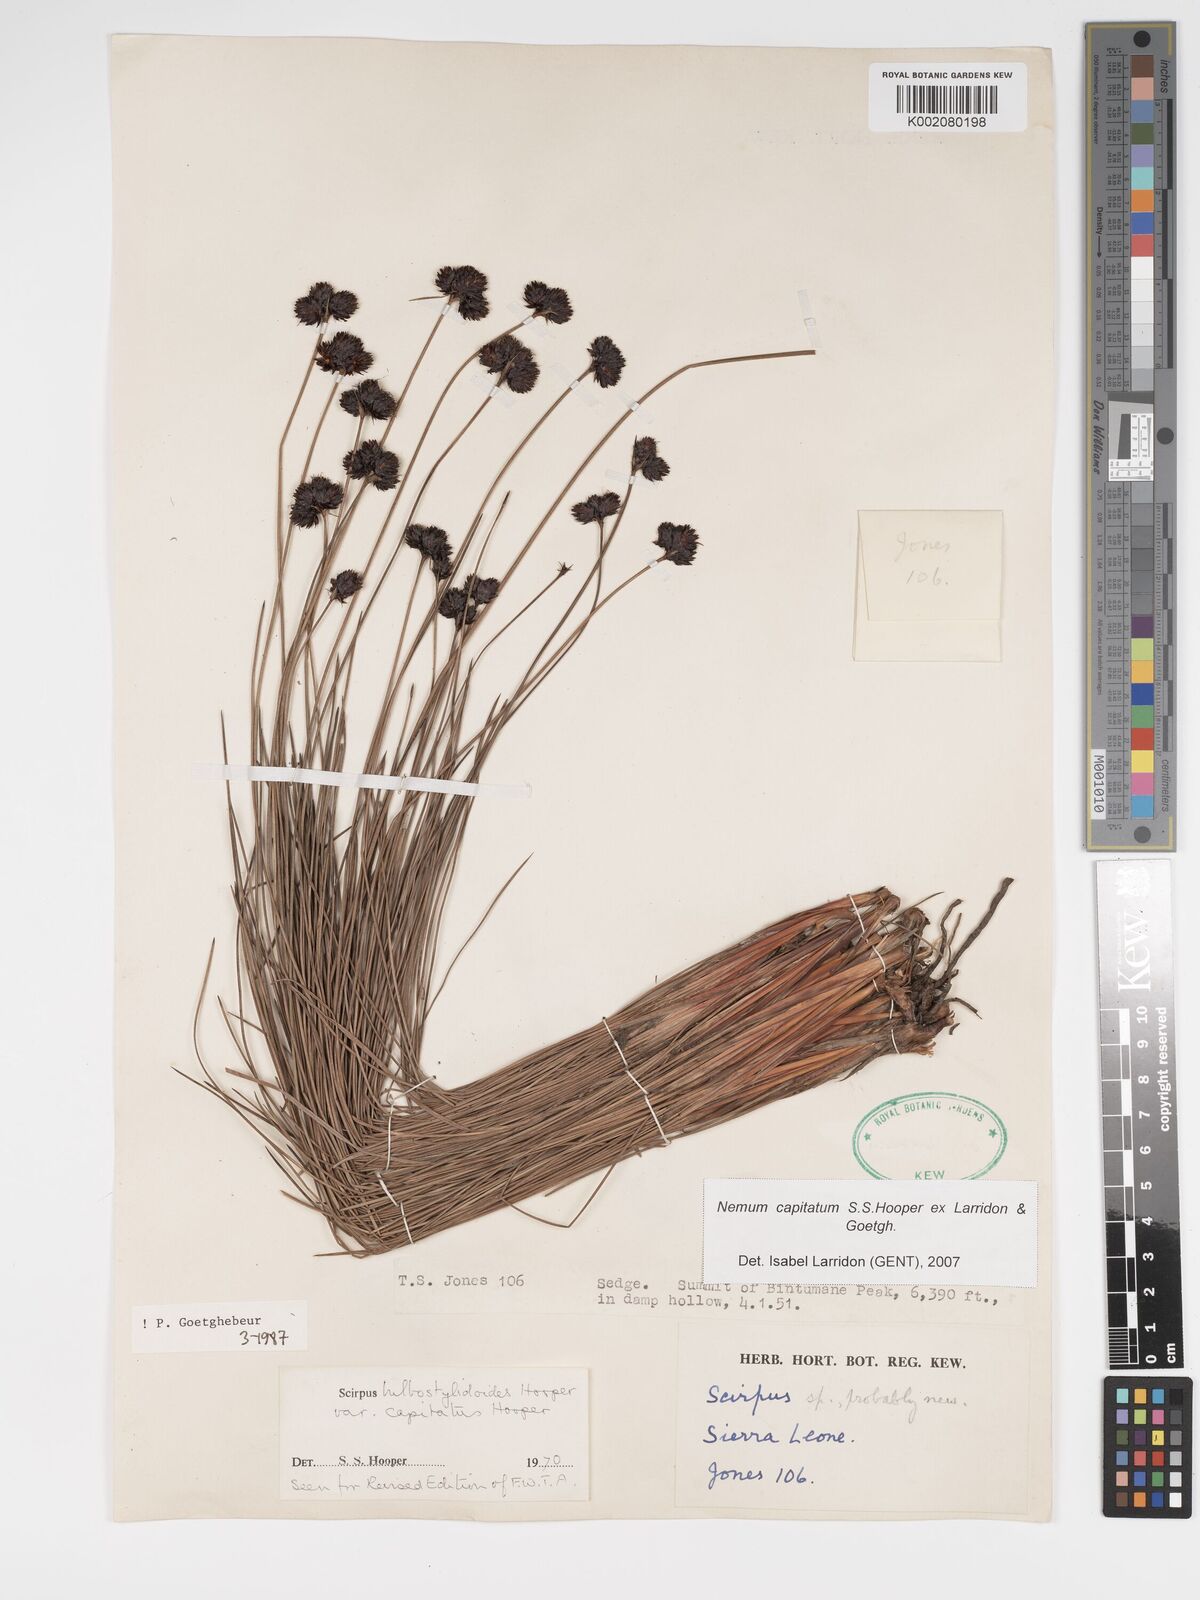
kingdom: Plantae
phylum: Tracheophyta
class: Liliopsida
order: Poales
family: Cyperaceae
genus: Bulbostylis
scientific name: Bulbostylis neocapitata
